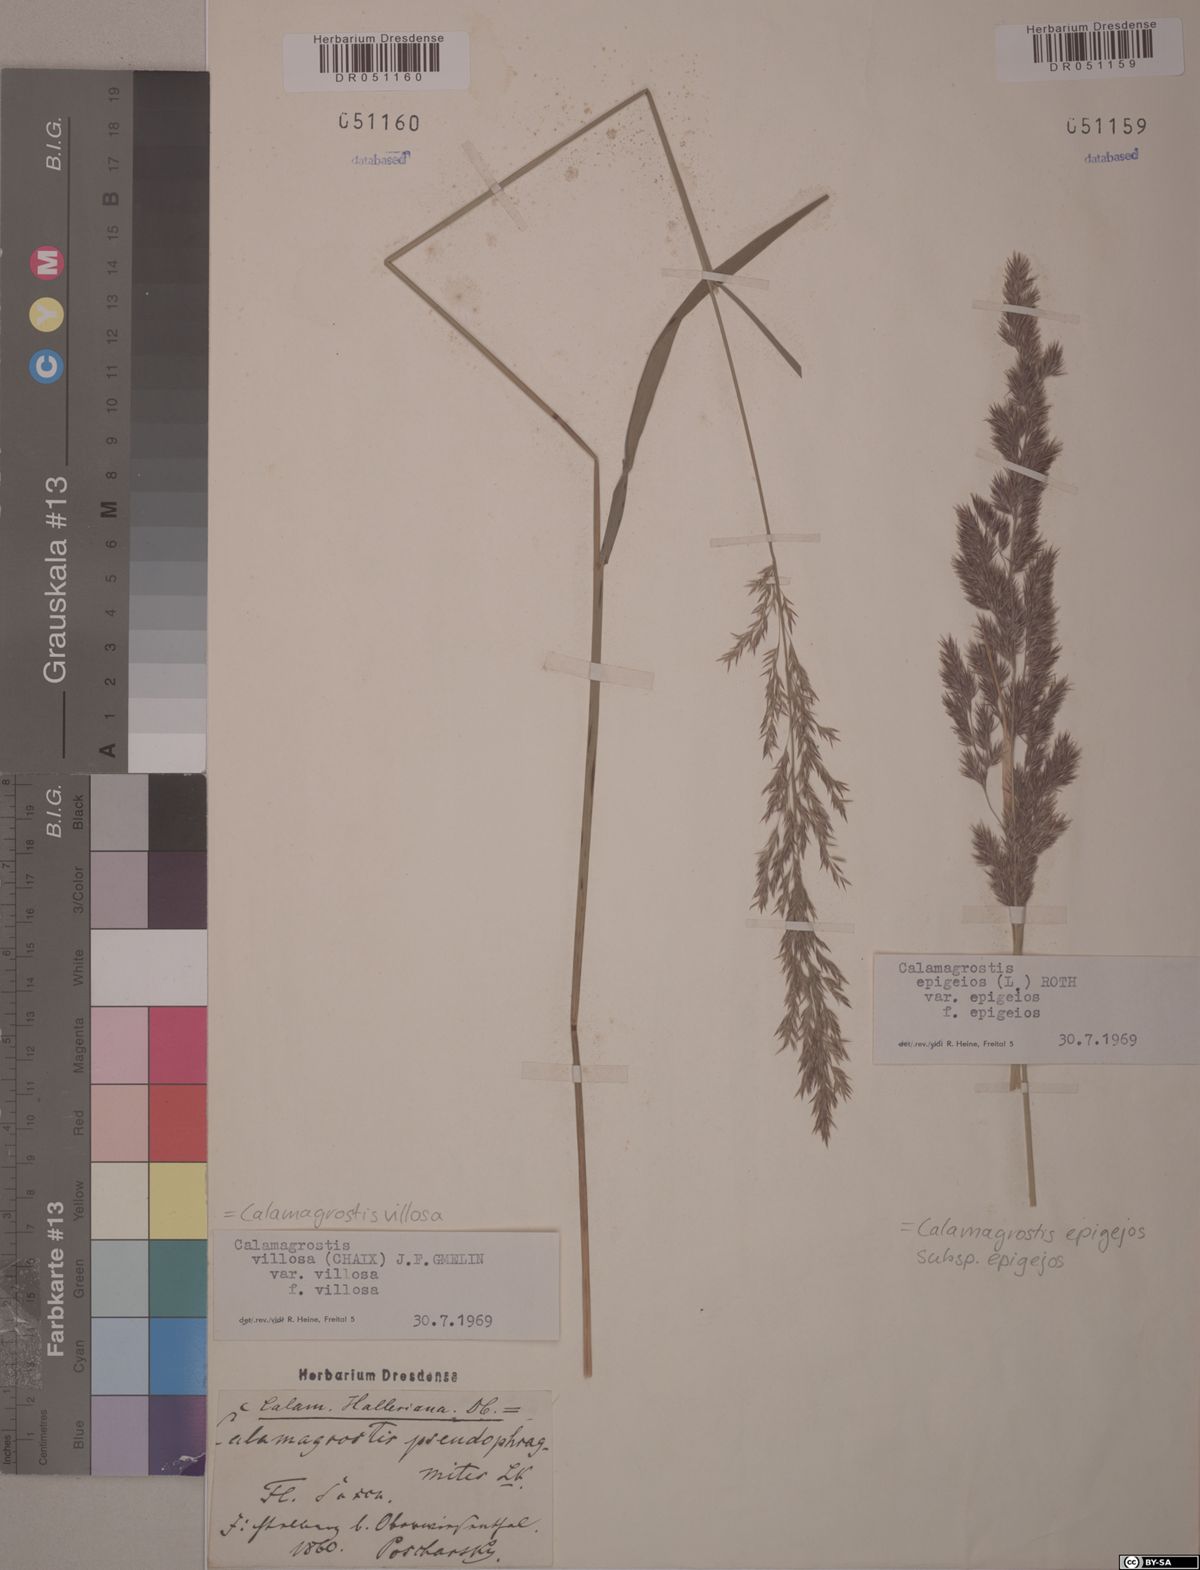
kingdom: Plantae
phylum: Tracheophyta
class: Liliopsida
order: Poales
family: Poaceae
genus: Calamagrostis
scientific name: Calamagrostis villosa
